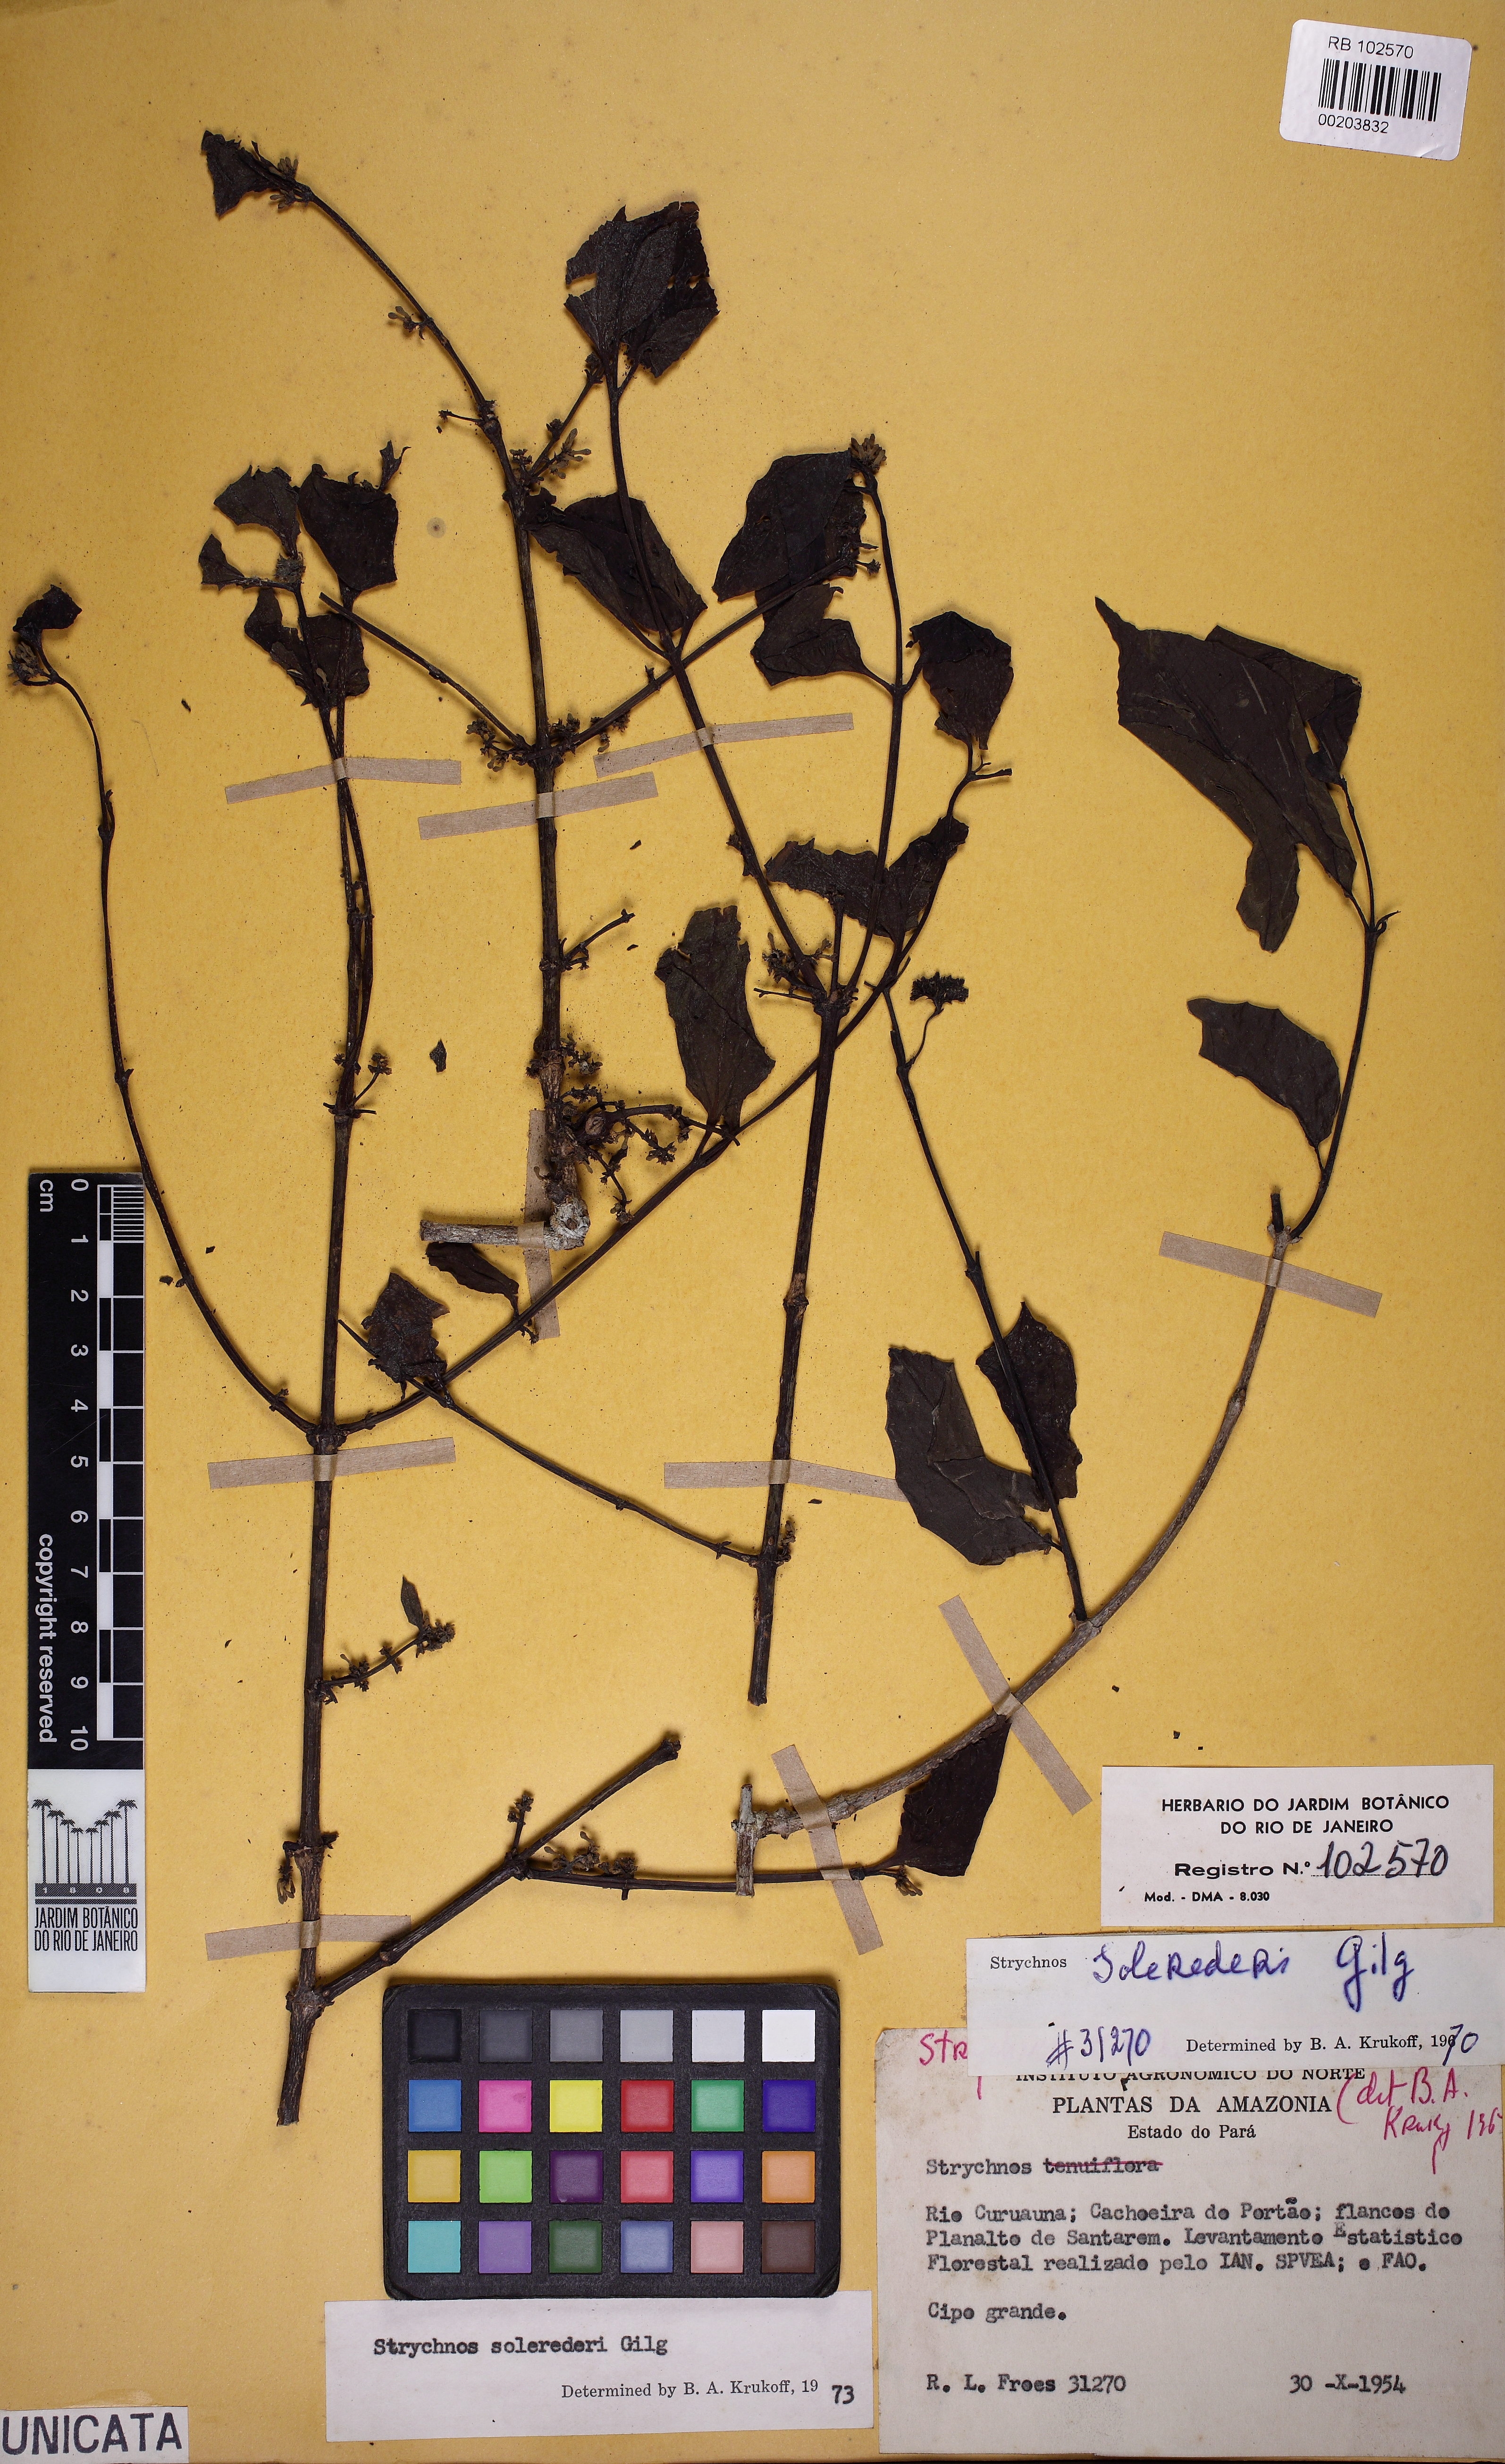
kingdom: Plantae
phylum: Tracheophyta
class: Magnoliopsida
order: Gentianales
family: Loganiaceae
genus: Strychnos
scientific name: Strychnos solerederi
